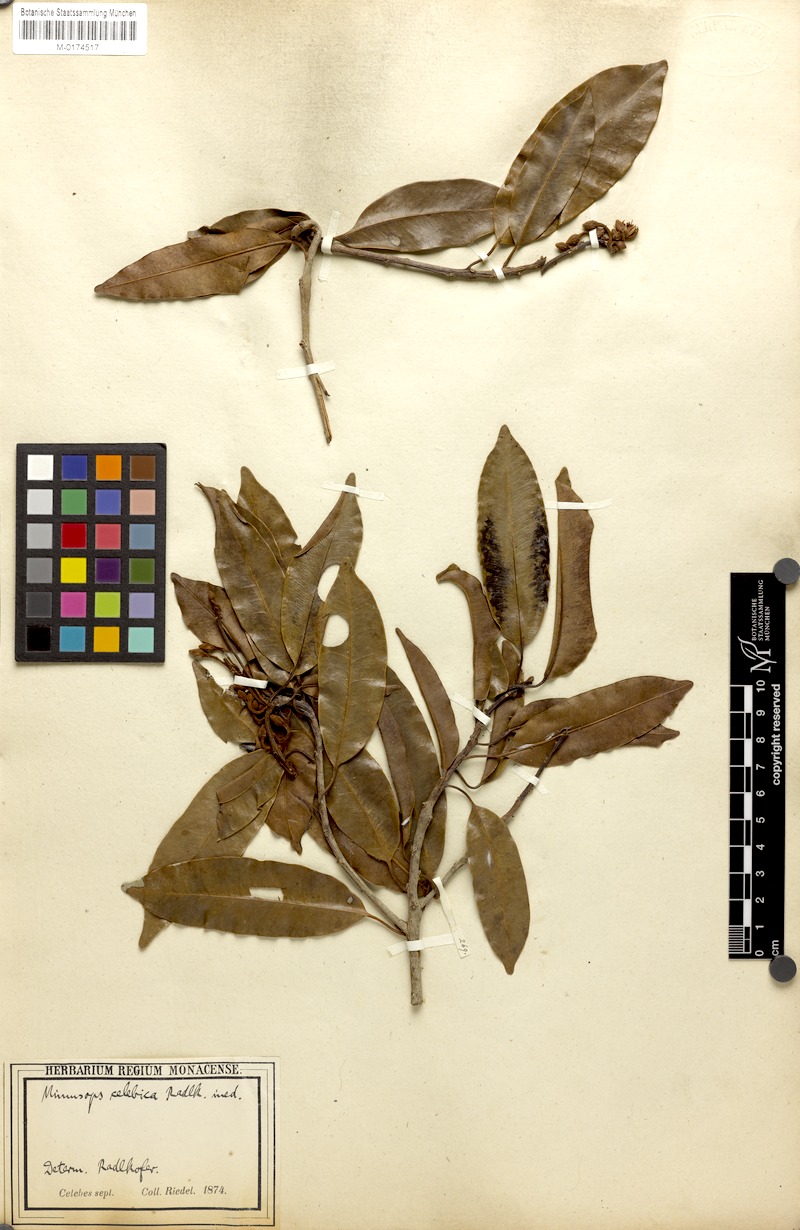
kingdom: Plantae
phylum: Tracheophyta
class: Magnoliopsida
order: Ericales
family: Sapotaceae
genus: Mimusops
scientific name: Mimusops
